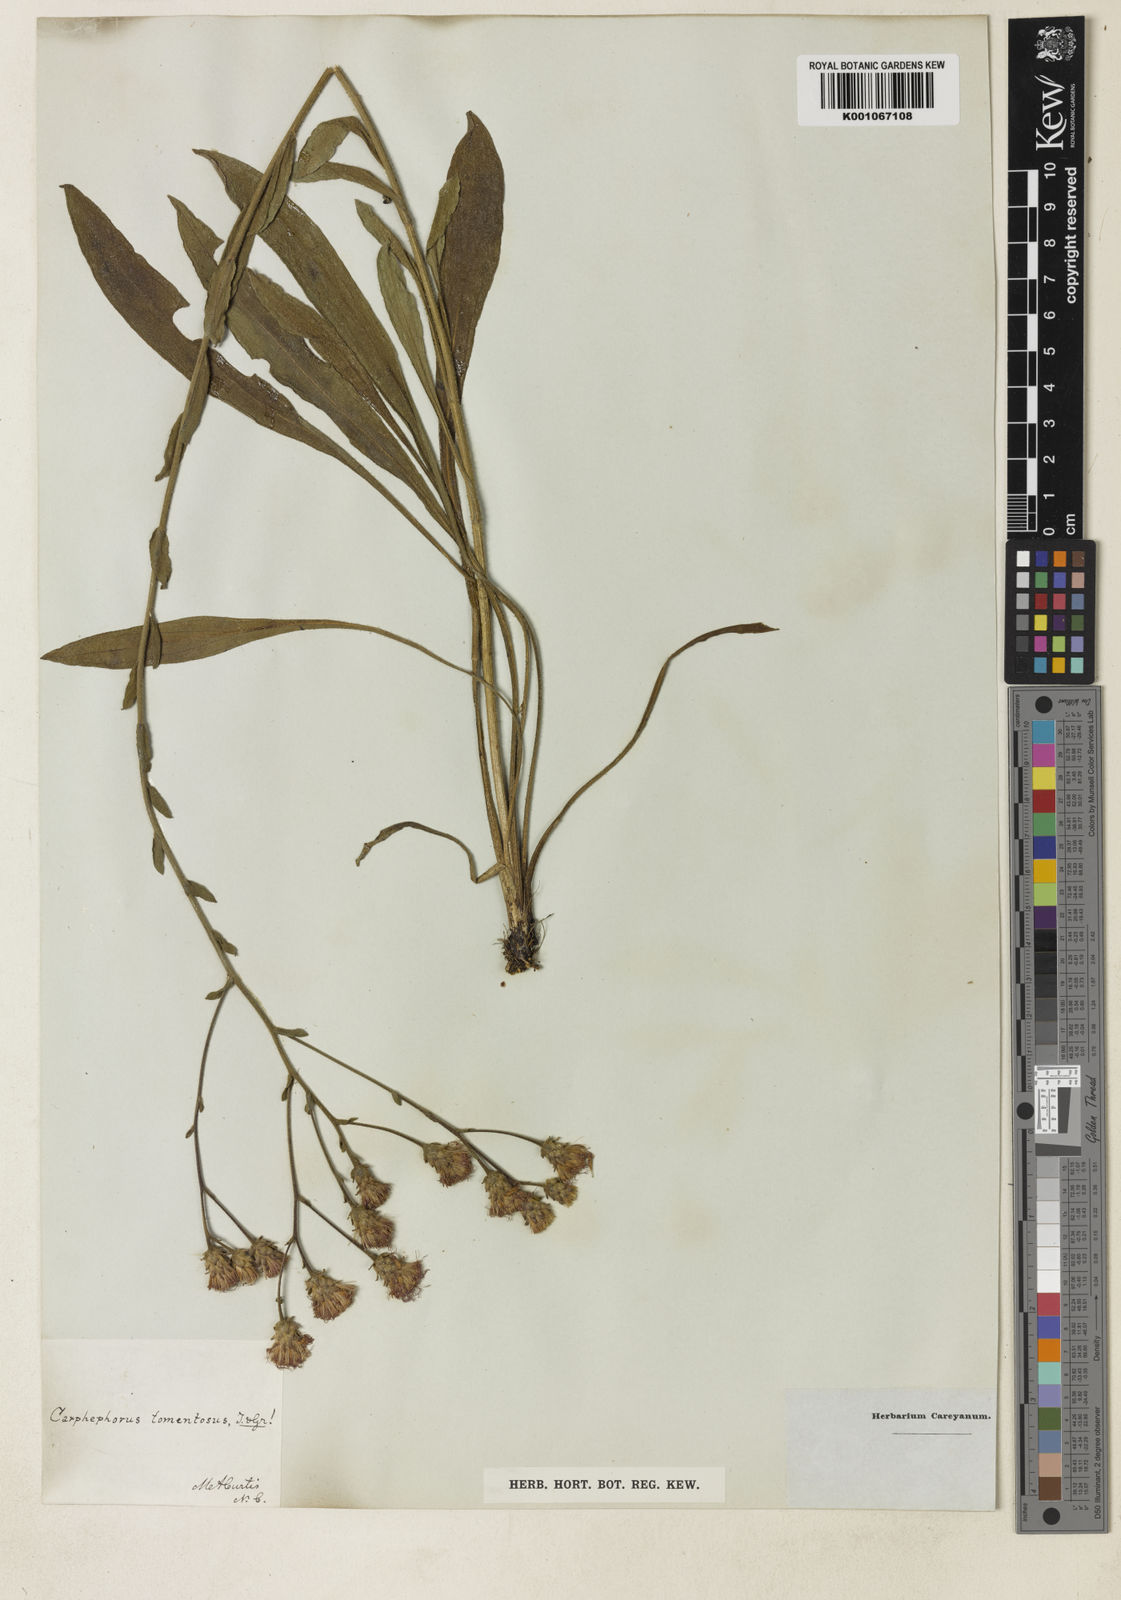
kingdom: Plantae
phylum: Tracheophyta
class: Magnoliopsida
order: Asterales
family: Asteraceae
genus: Carphephorus
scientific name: Carphephorus tomentosus
